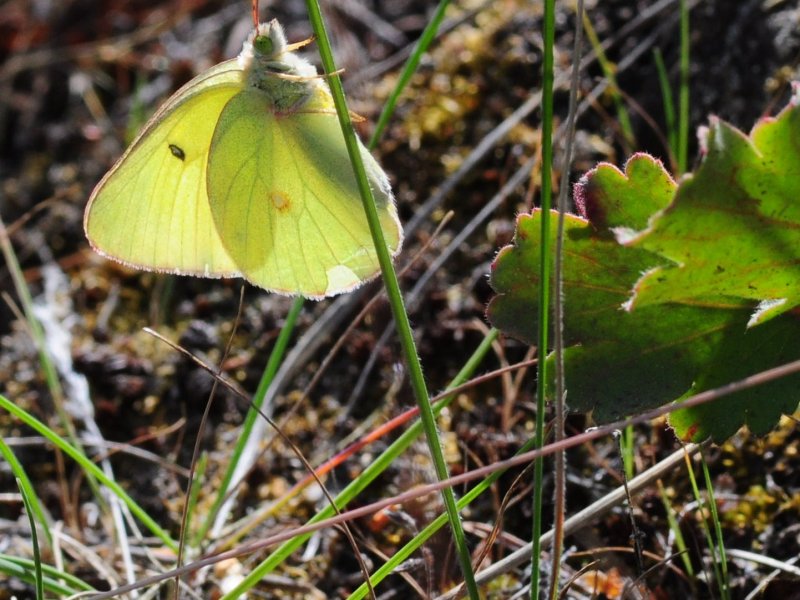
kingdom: Animalia
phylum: Arthropoda
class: Insecta
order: Lepidoptera
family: Pieridae
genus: Colias
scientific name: Colias alexandra
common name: Queen Alexandra's Sulphur
